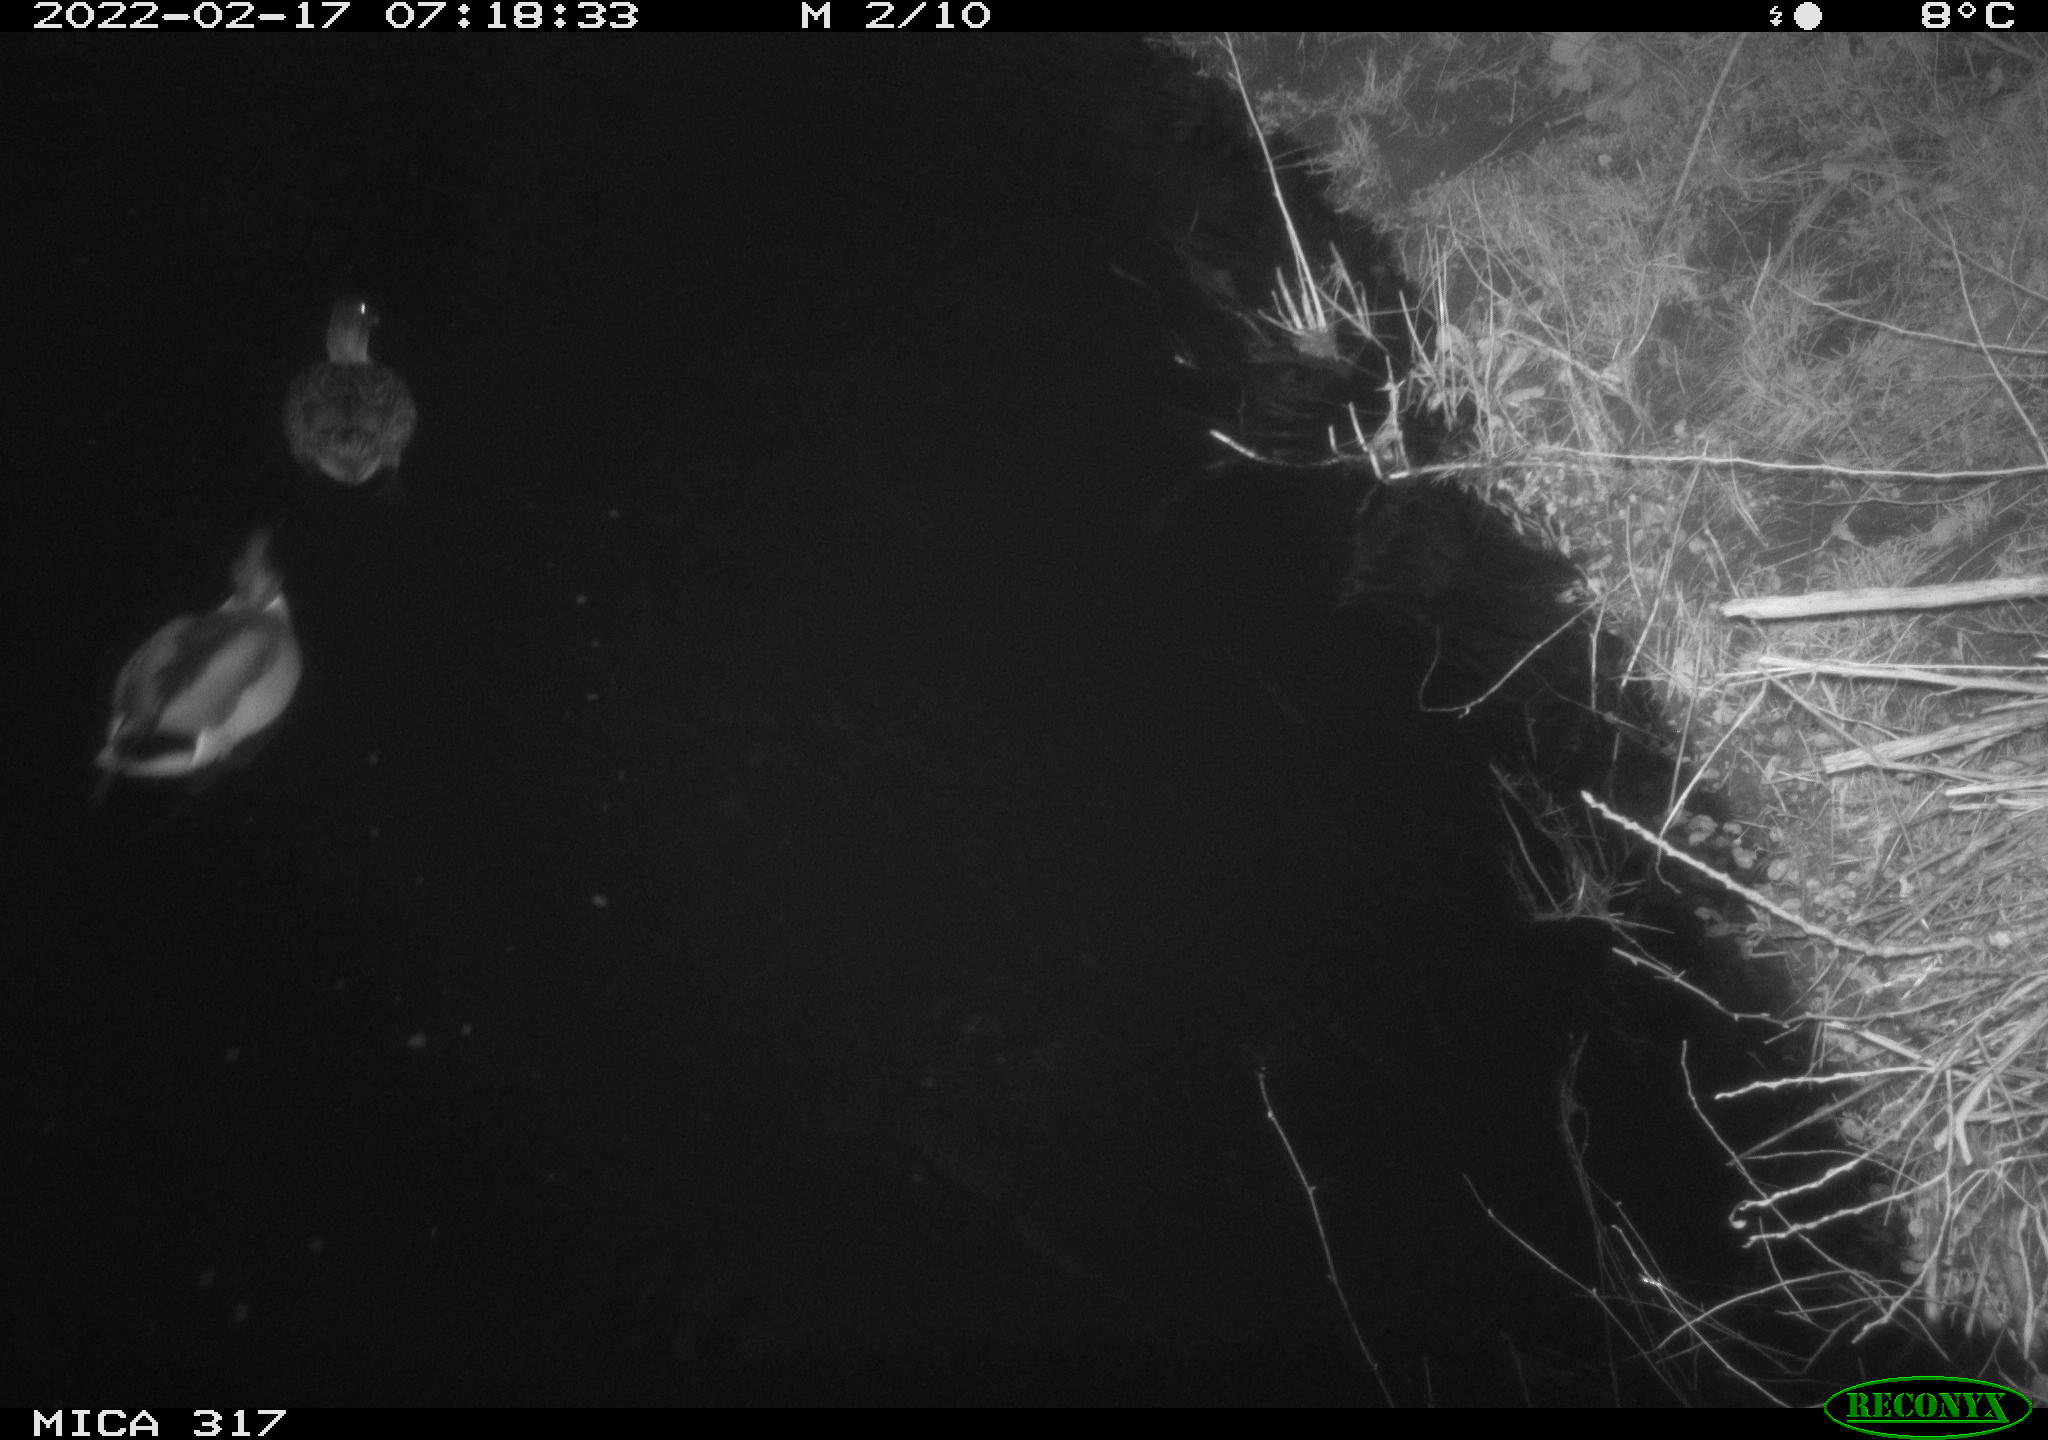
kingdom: Animalia
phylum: Chordata
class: Aves
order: Anseriformes
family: Anatidae
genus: Anas
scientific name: Anas platyrhynchos
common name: Mallard
